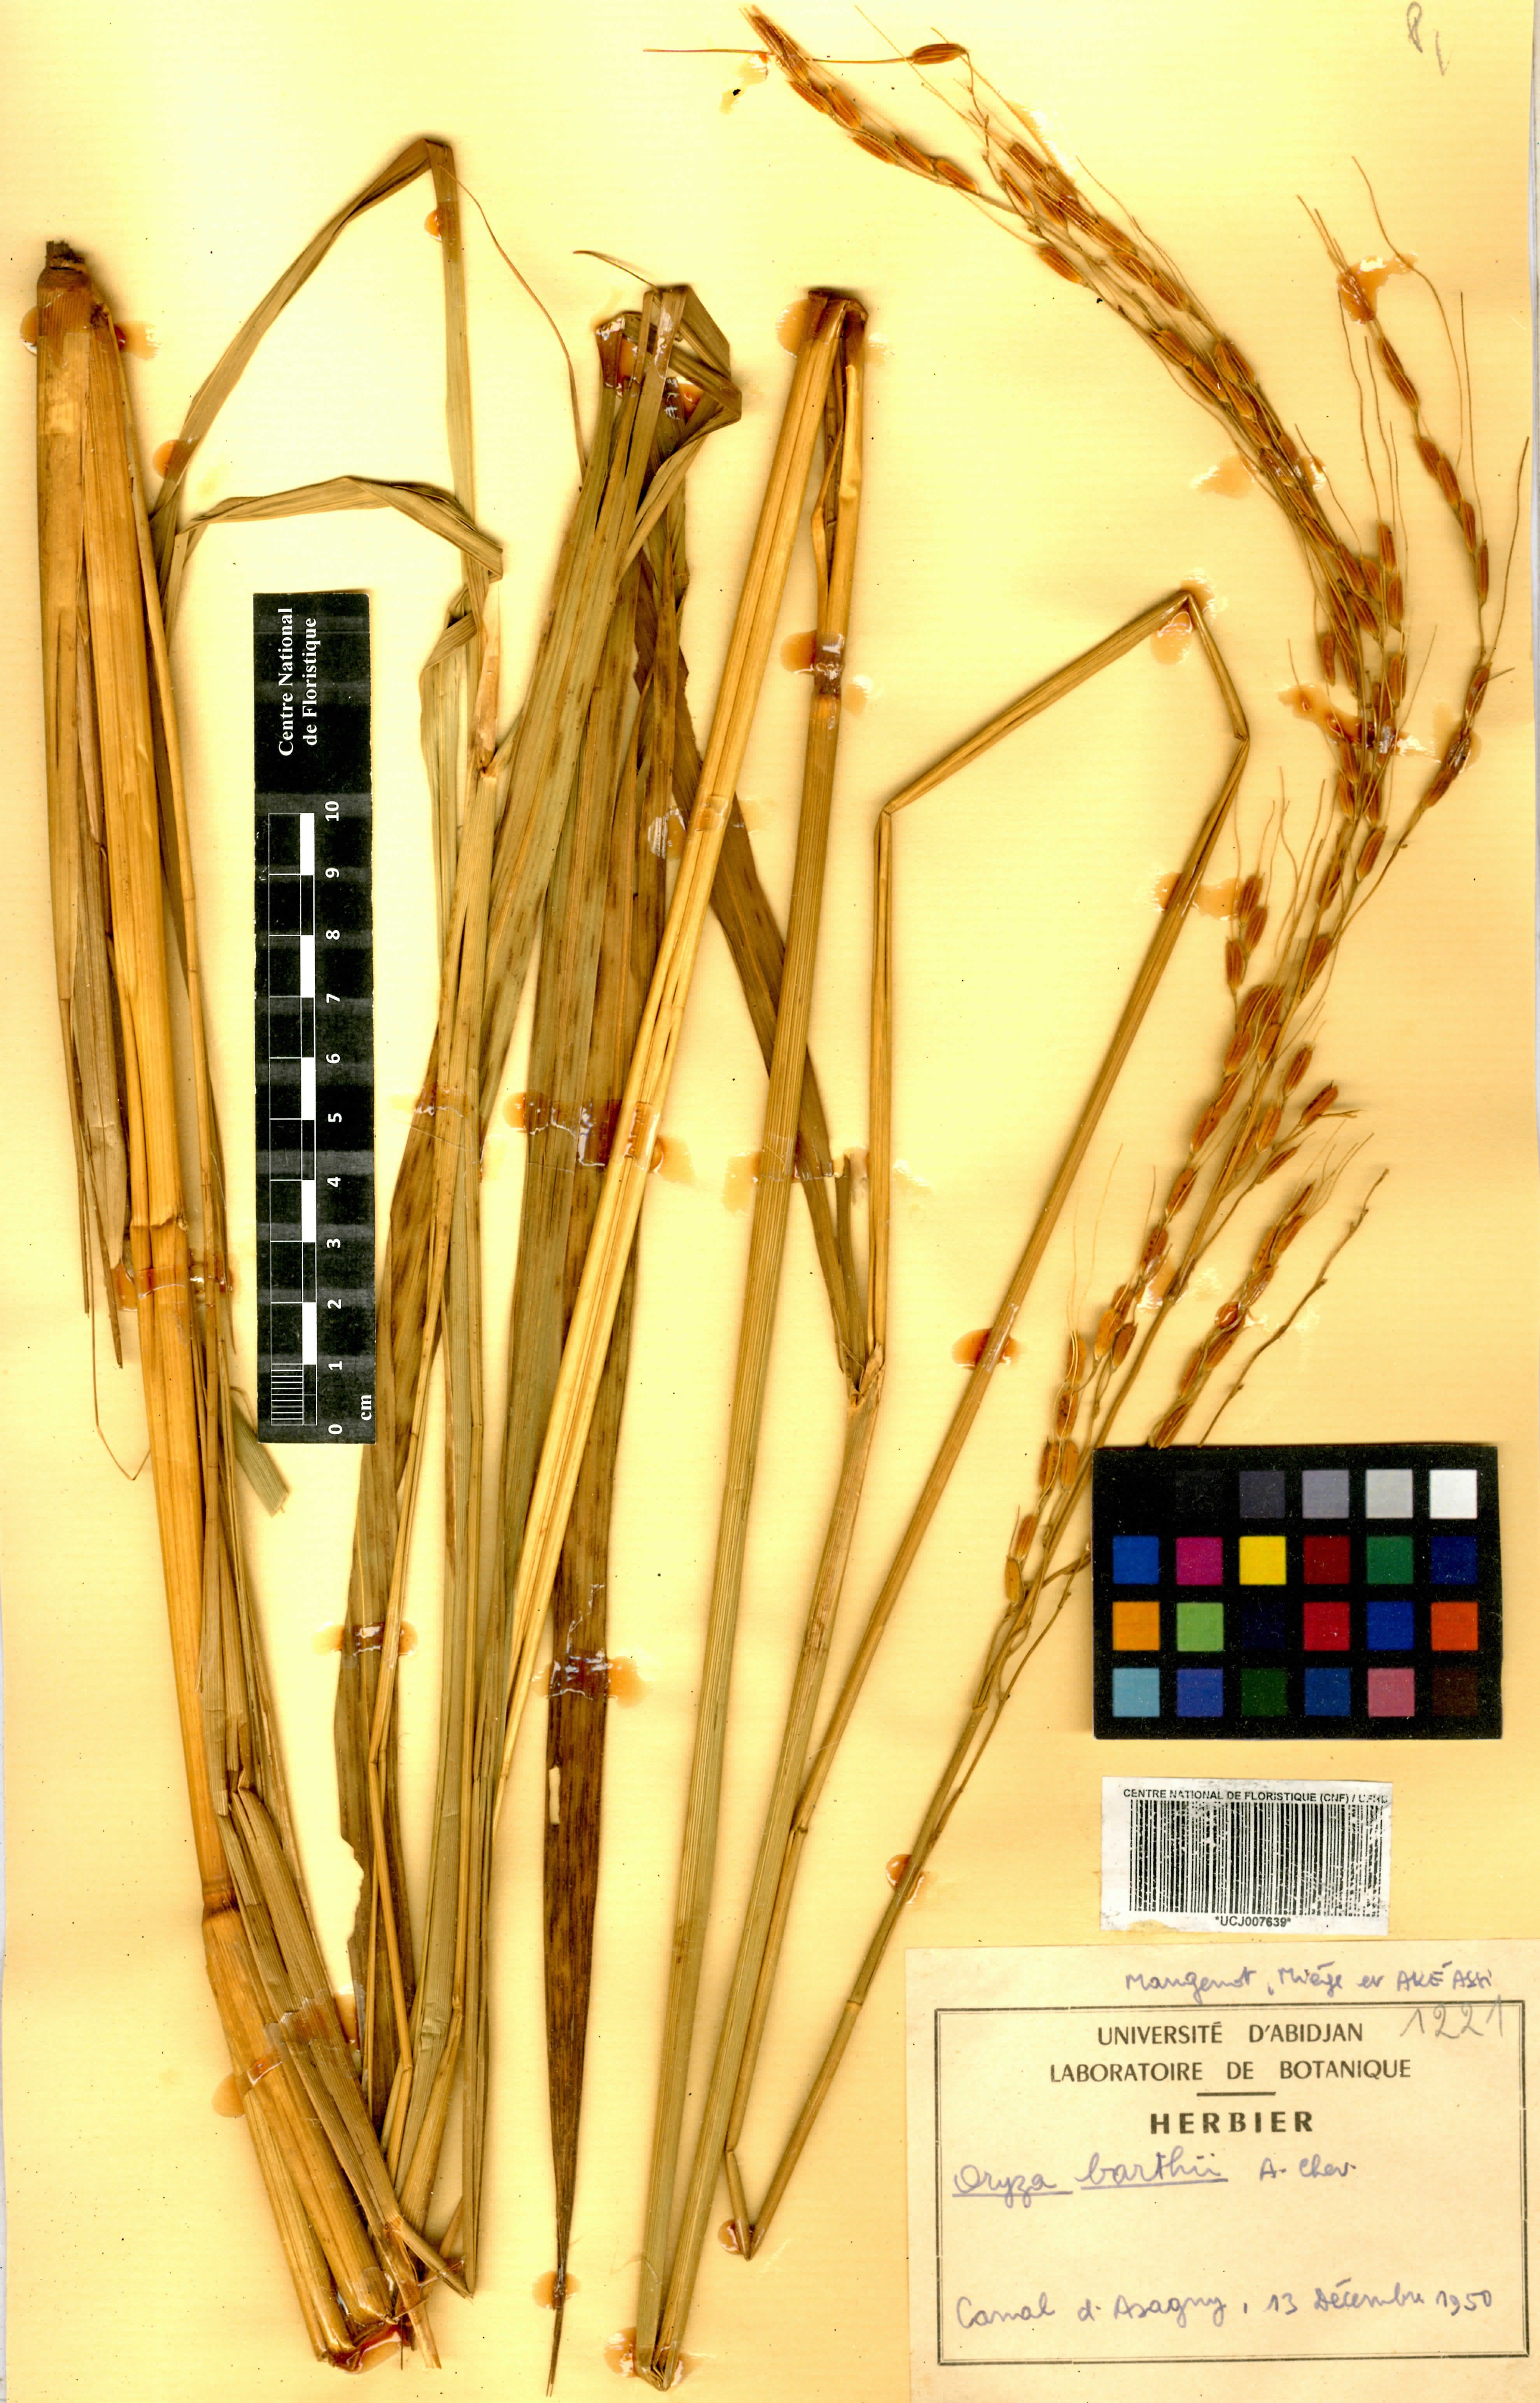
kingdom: Plantae
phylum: Tracheophyta
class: Liliopsida
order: Poales
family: Poaceae
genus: Oryza
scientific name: Oryza barthii
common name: Wild rice
